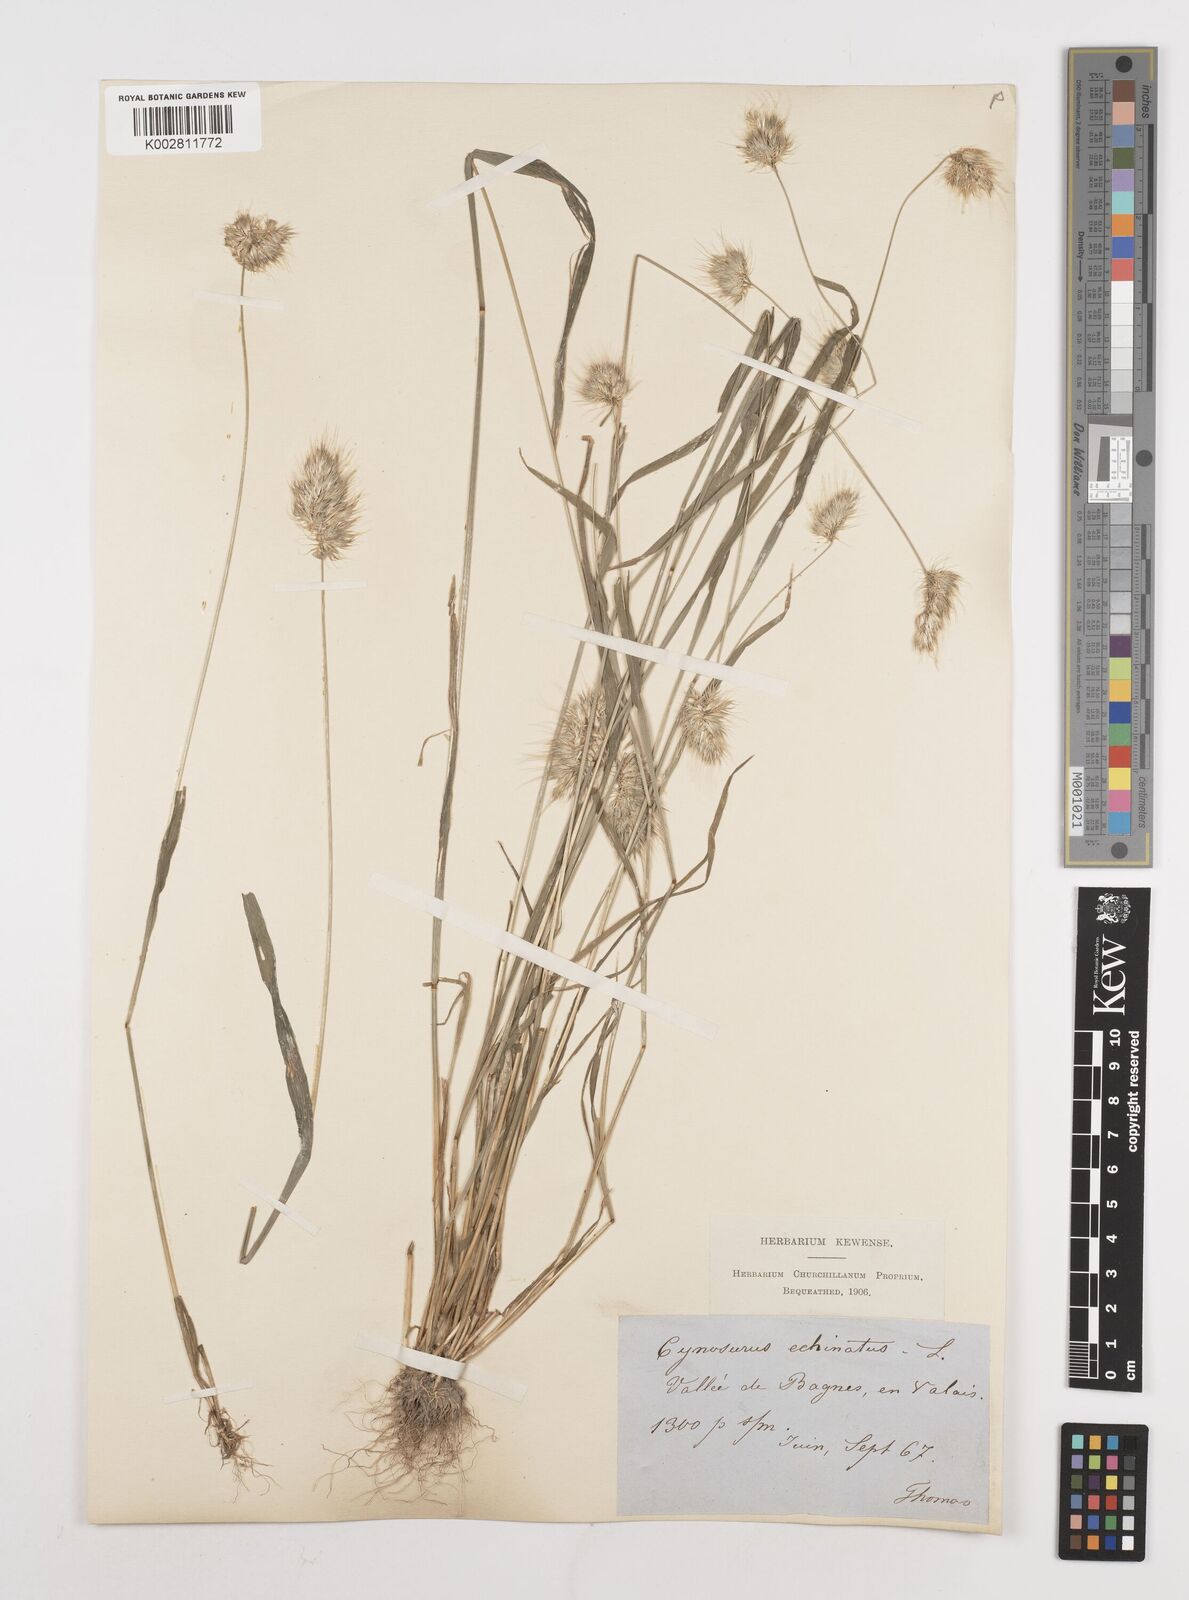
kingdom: Plantae
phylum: Tracheophyta
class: Liliopsida
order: Poales
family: Poaceae
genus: Cynosurus
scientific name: Cynosurus echinatus
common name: Rough dog's-tail
